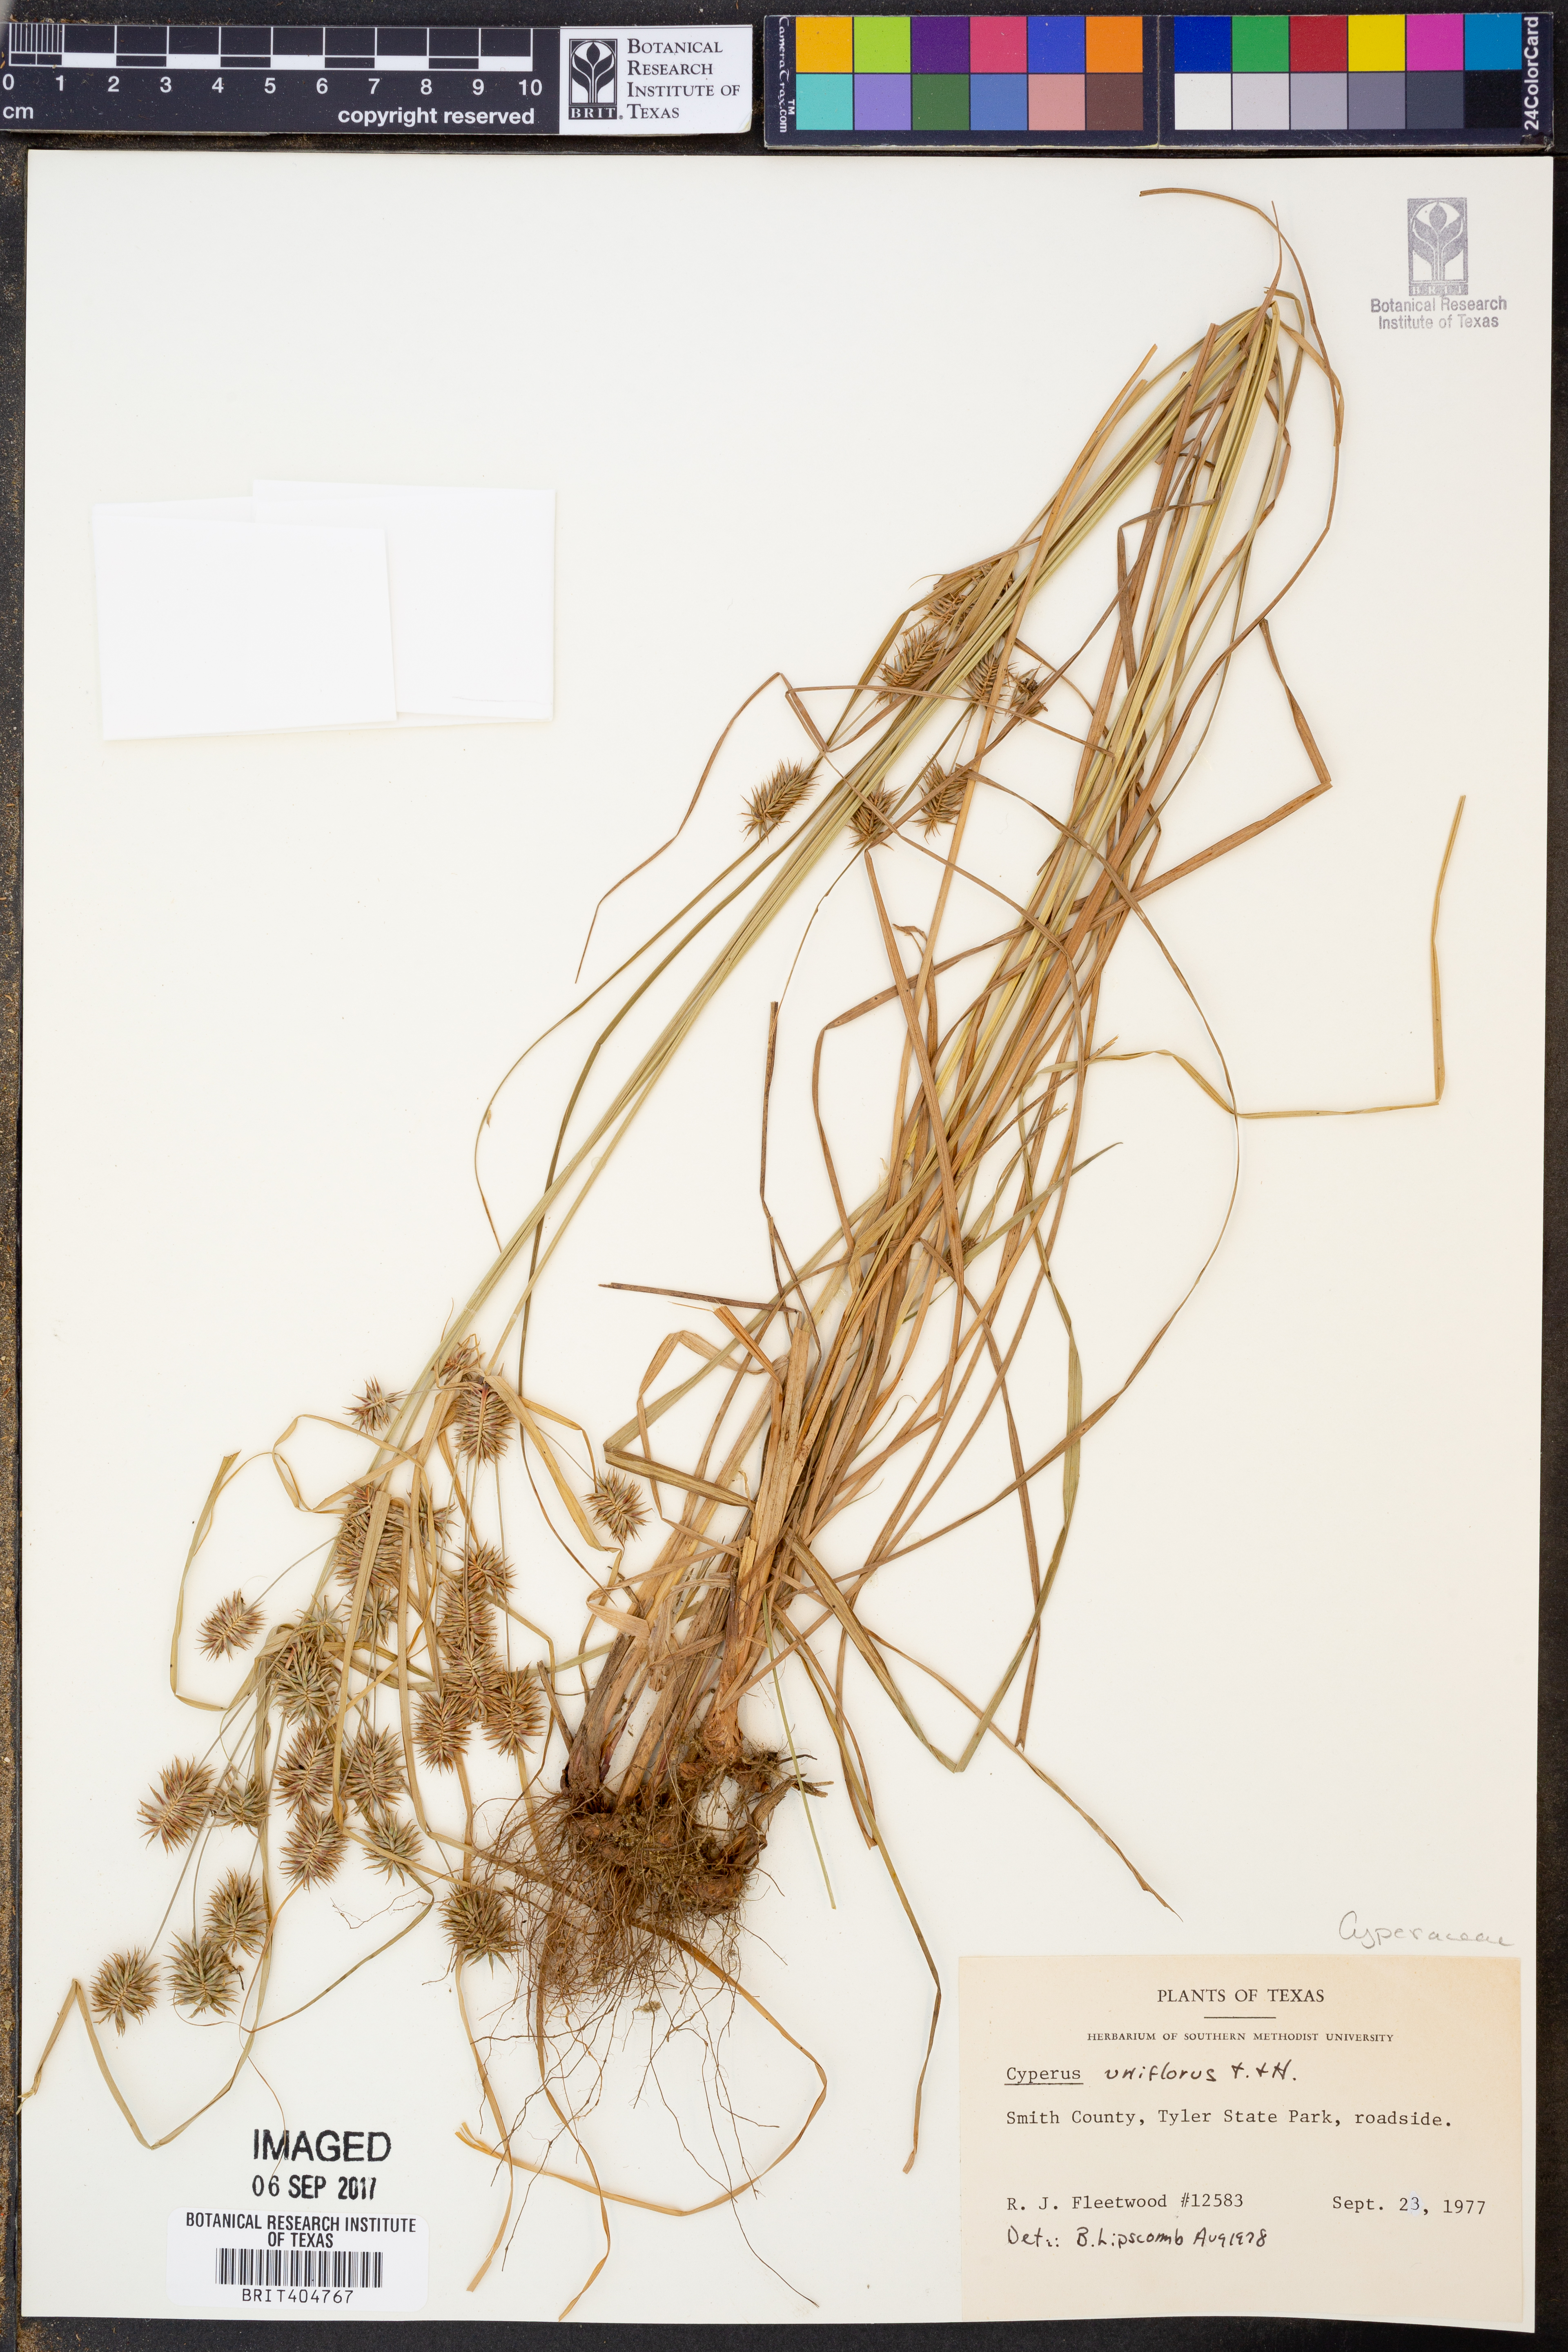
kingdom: Plantae
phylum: Tracheophyta
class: Liliopsida
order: Poales
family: Cyperaceae
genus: Cyperus
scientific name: Cyperus retroflexus
